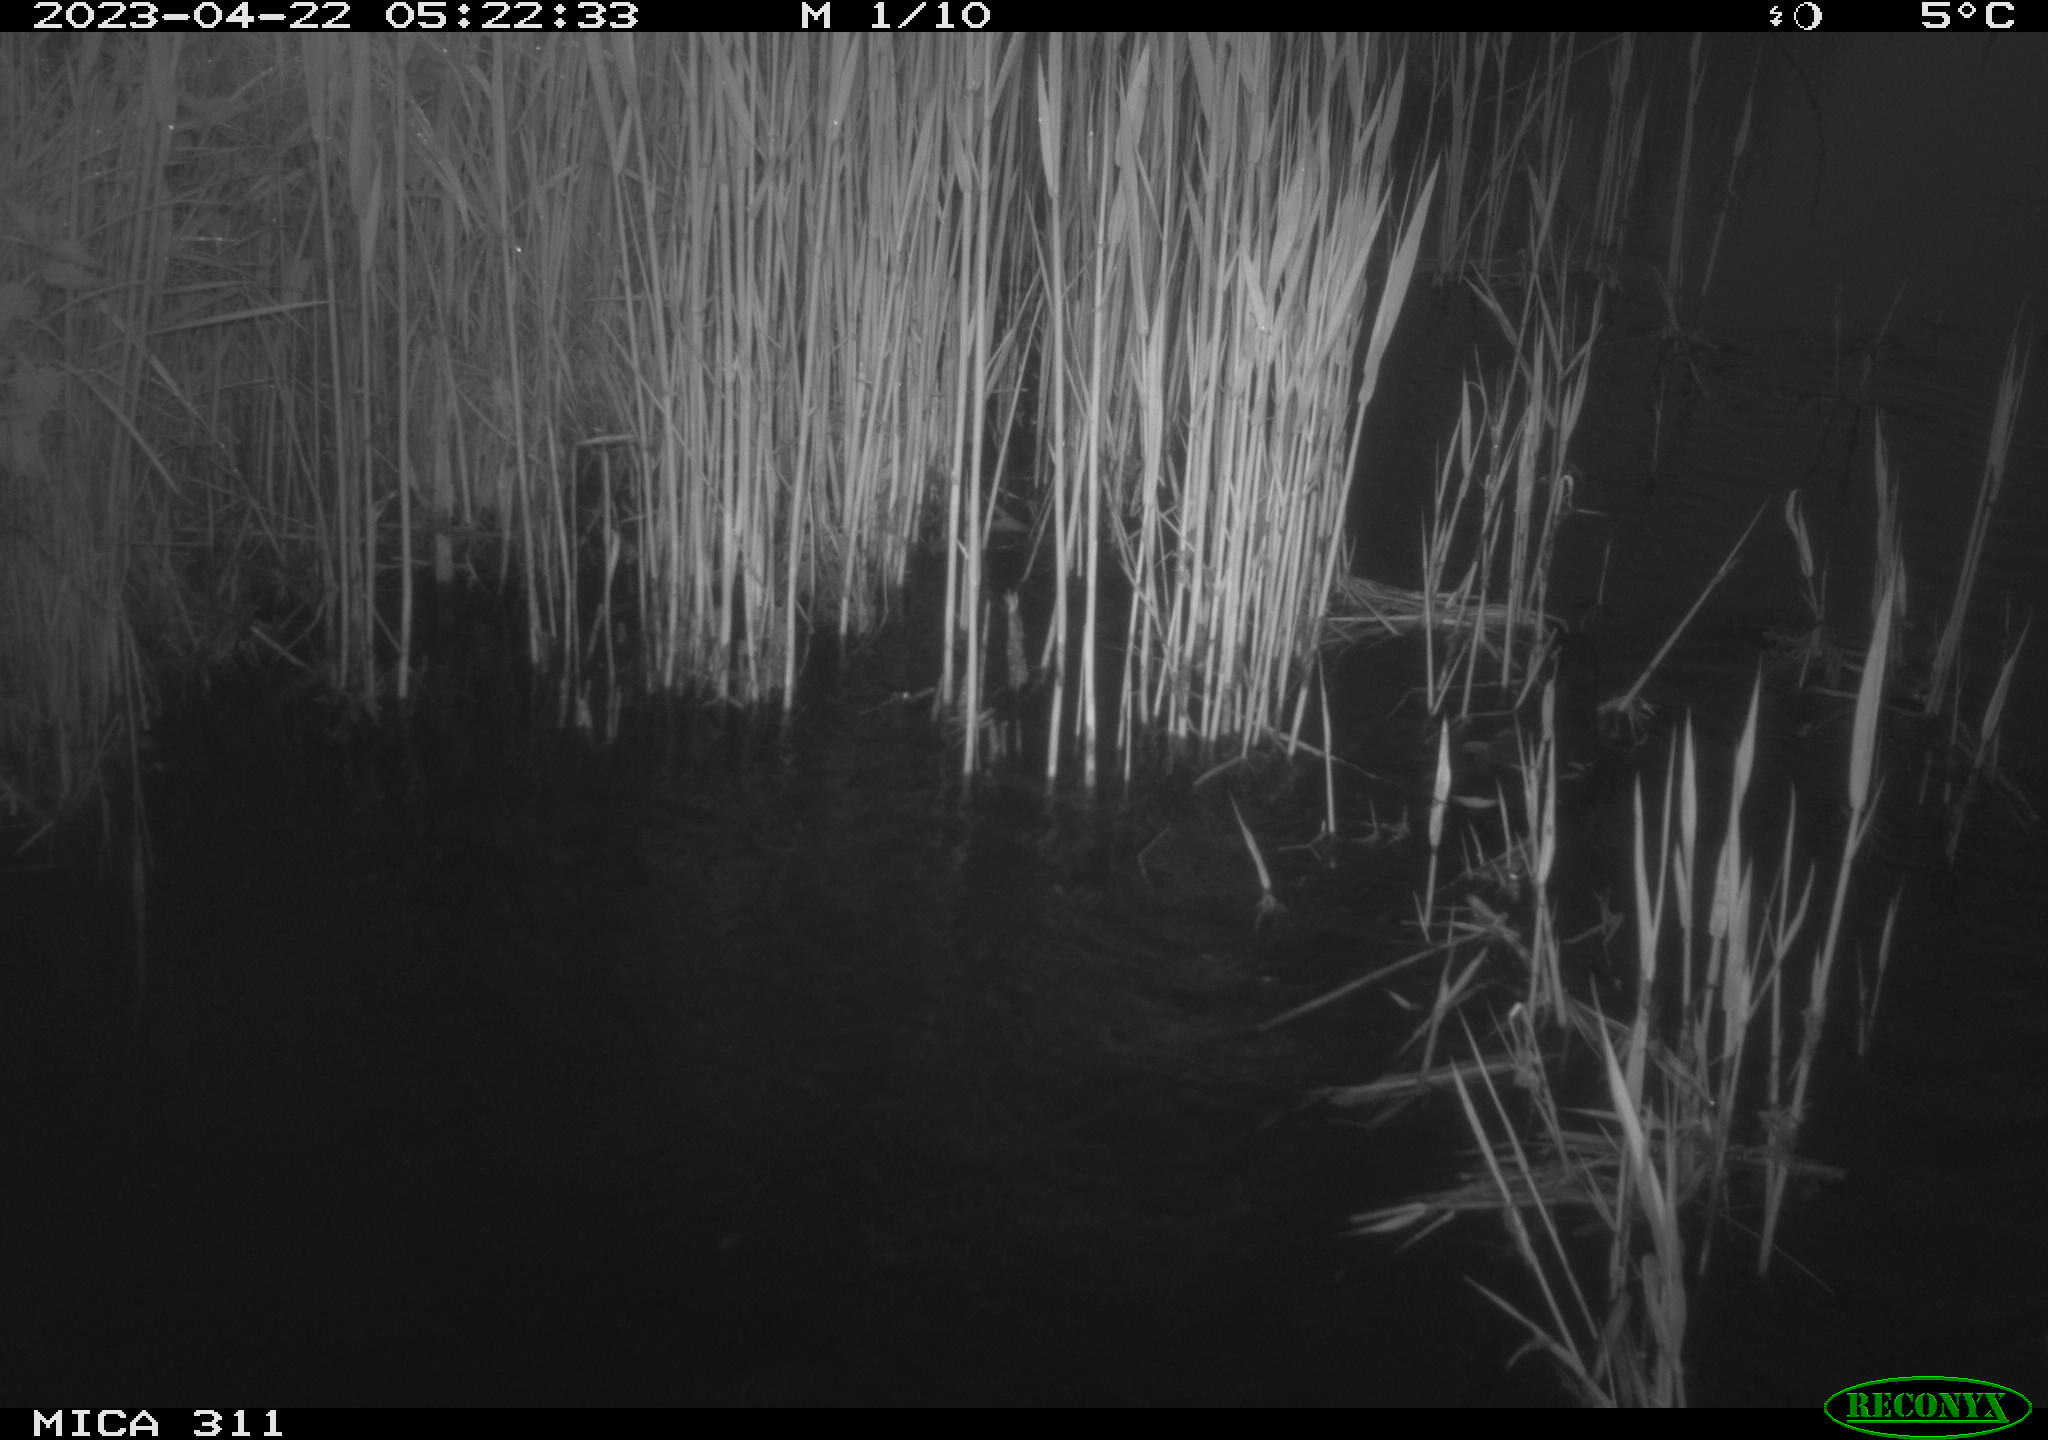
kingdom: Animalia
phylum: Chordata
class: Aves
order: Gruiformes
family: Rallidae
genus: Fulica
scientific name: Fulica atra
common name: Eurasian coot
